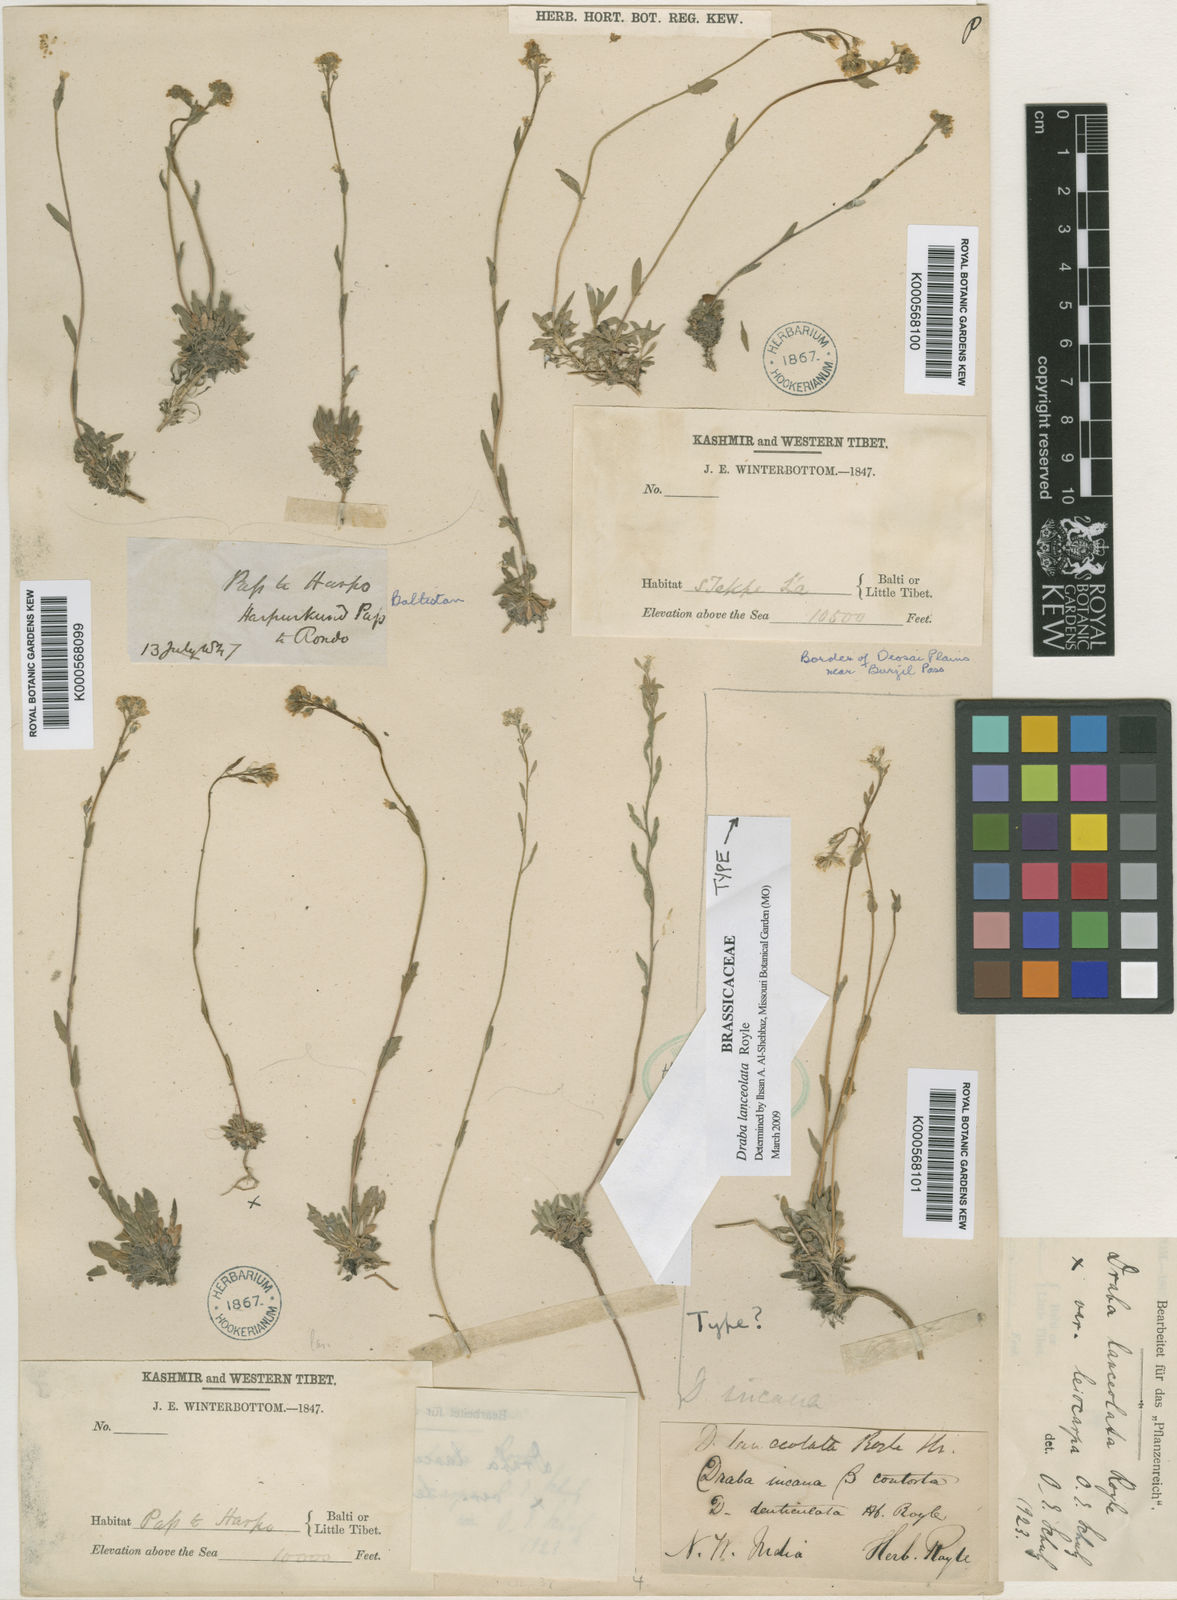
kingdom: Plantae
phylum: Tracheophyta
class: Magnoliopsida
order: Brassicales
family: Brassicaceae
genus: Draba
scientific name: Draba lanceolata
